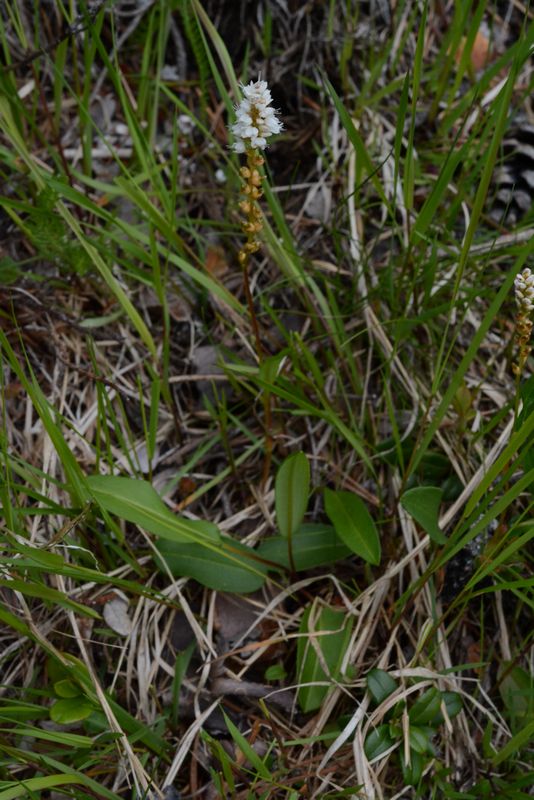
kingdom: Plantae
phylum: Tracheophyta
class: Magnoliopsida
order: Caryophyllales
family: Polygonaceae
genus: Bistorta
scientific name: Bistorta vivipara
